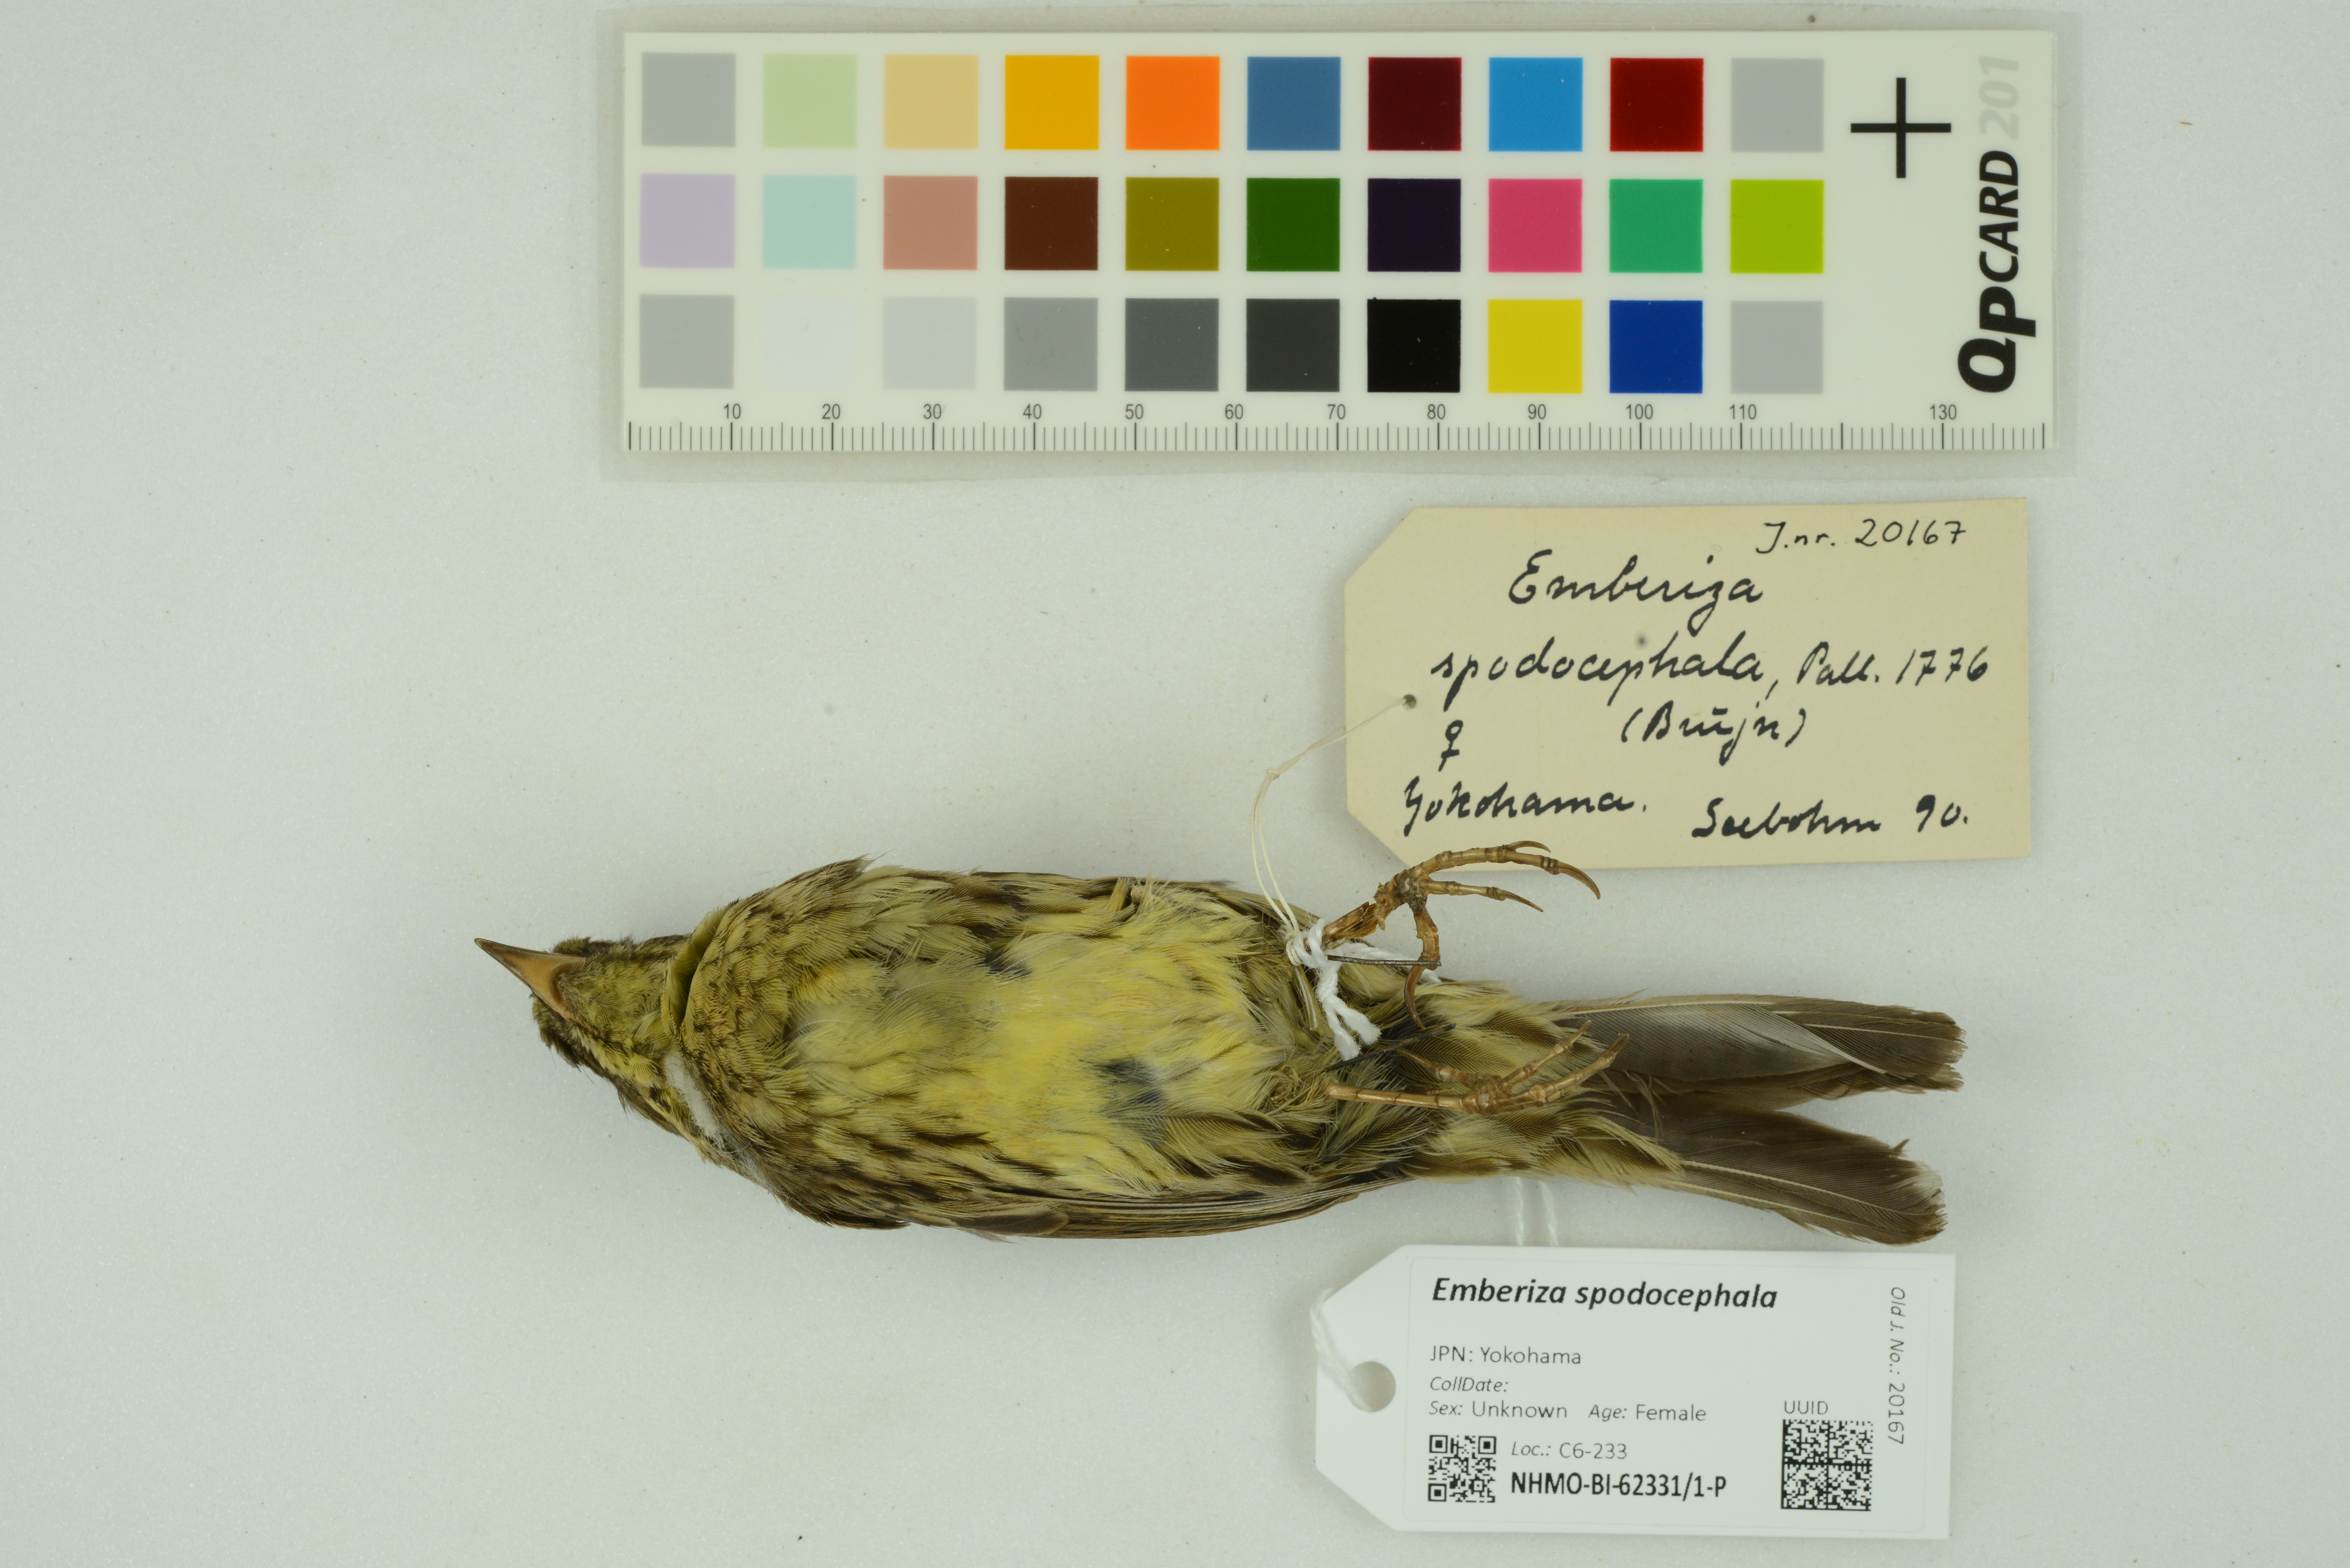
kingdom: Animalia
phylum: Chordata
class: Aves
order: Passeriformes
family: Emberizidae
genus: Emberiza
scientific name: Emberiza spodocephala
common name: Black-faced bunting
